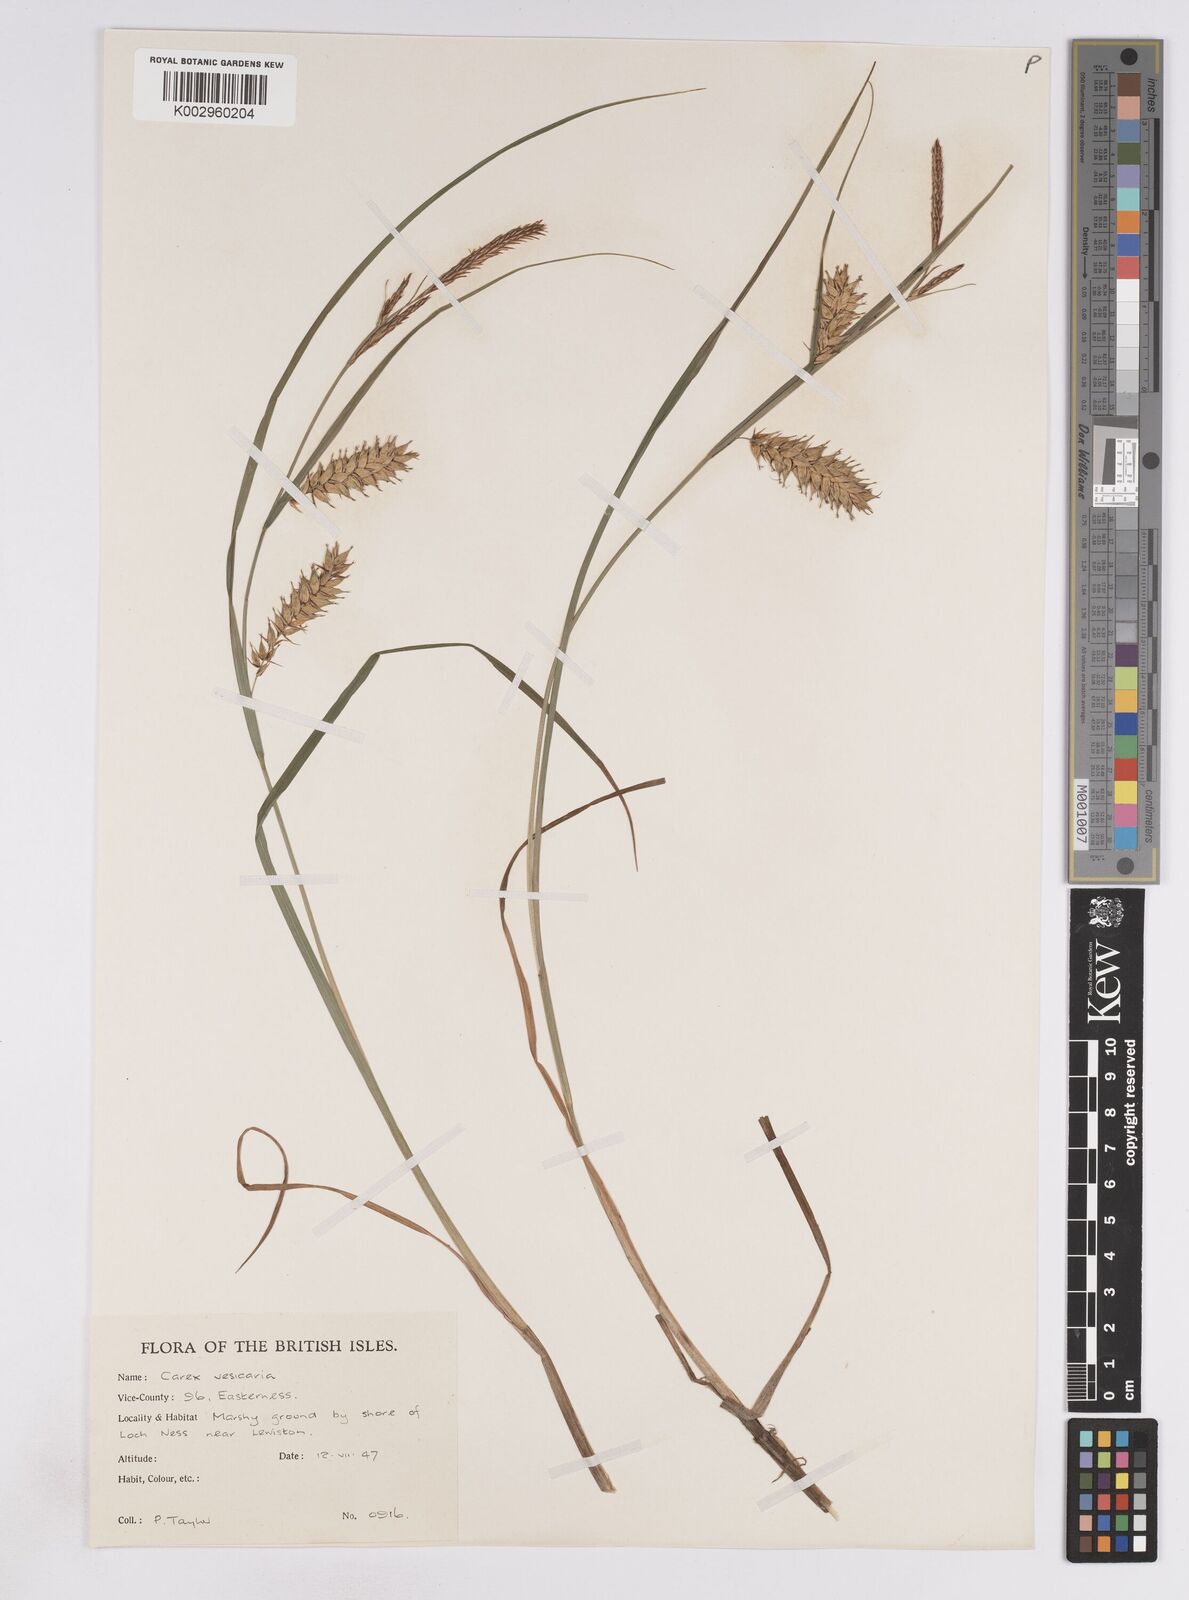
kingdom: Plantae
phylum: Tracheophyta
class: Liliopsida
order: Poales
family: Cyperaceae
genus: Carex
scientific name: Carex vesicaria
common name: Bladder-sedge
